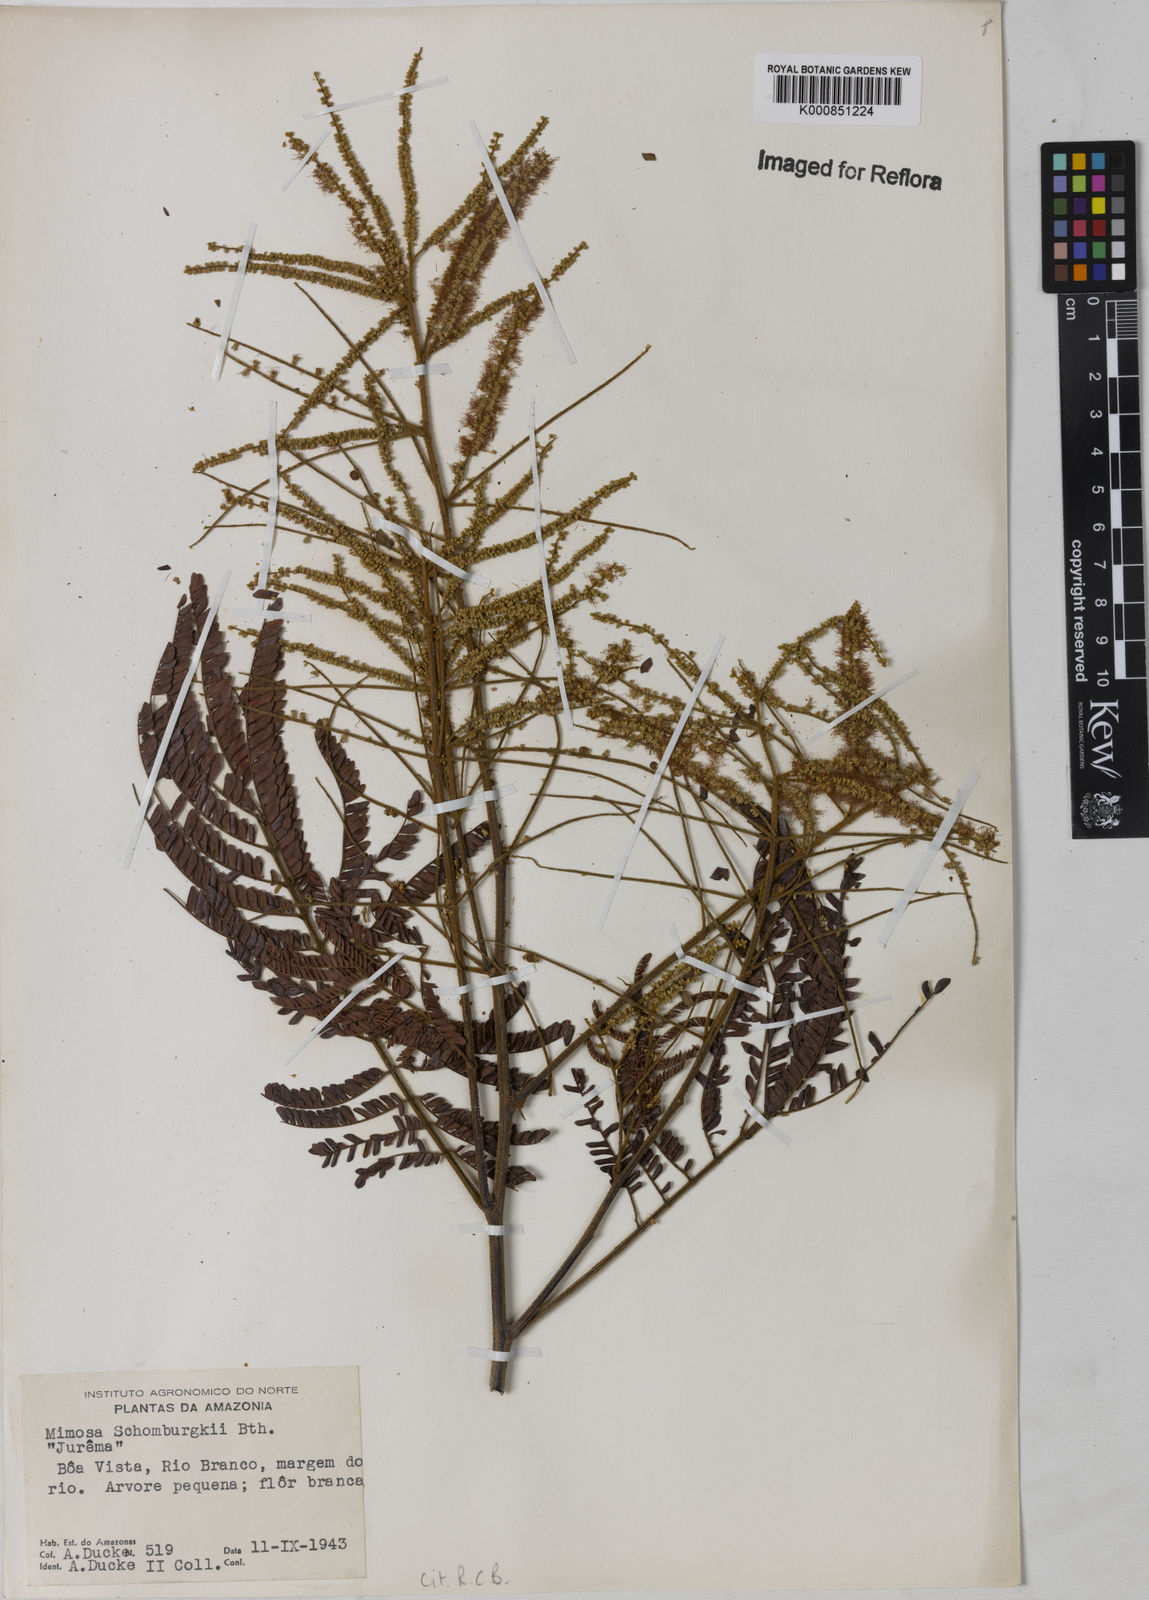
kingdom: Plantae
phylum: Tracheophyta
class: Magnoliopsida
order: Fabales
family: Fabaceae
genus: Mimosa
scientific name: Mimosa schomburgkii
